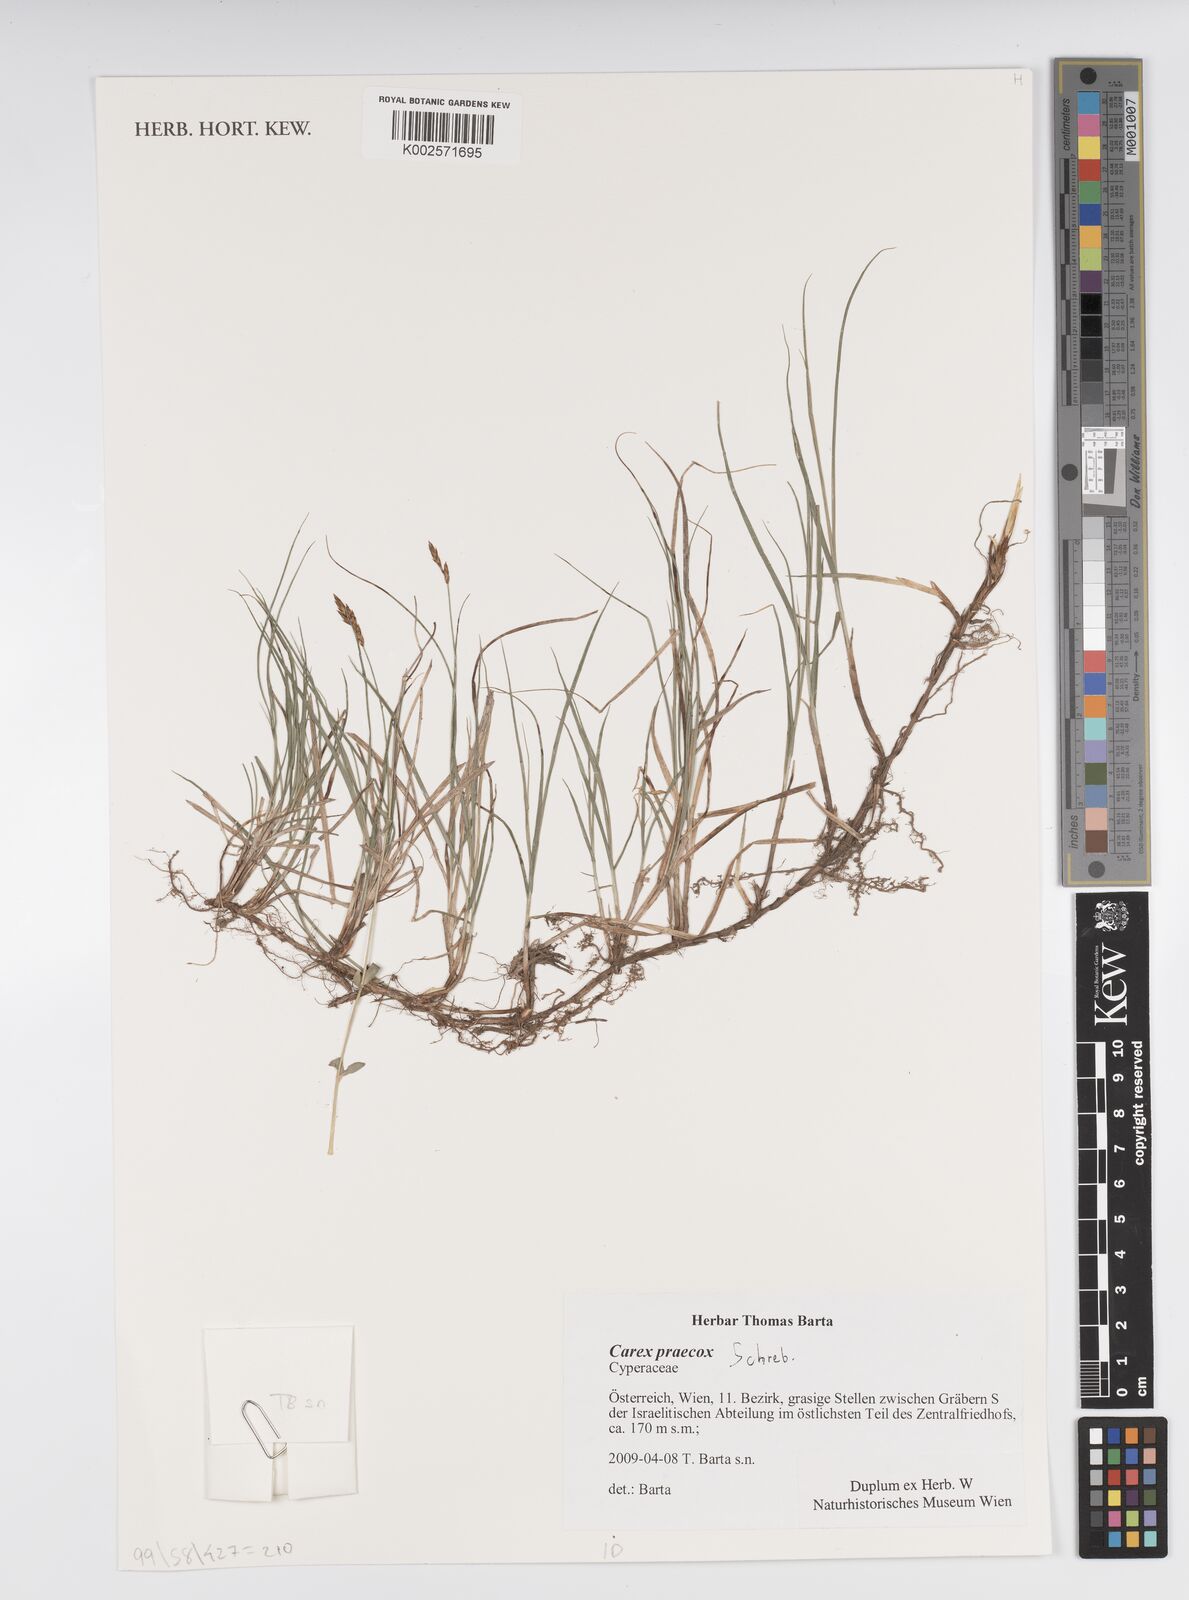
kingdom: Plantae
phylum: Tracheophyta
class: Liliopsida
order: Poales
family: Cyperaceae
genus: Carex
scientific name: Carex caryophyllea
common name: Spring sedge
